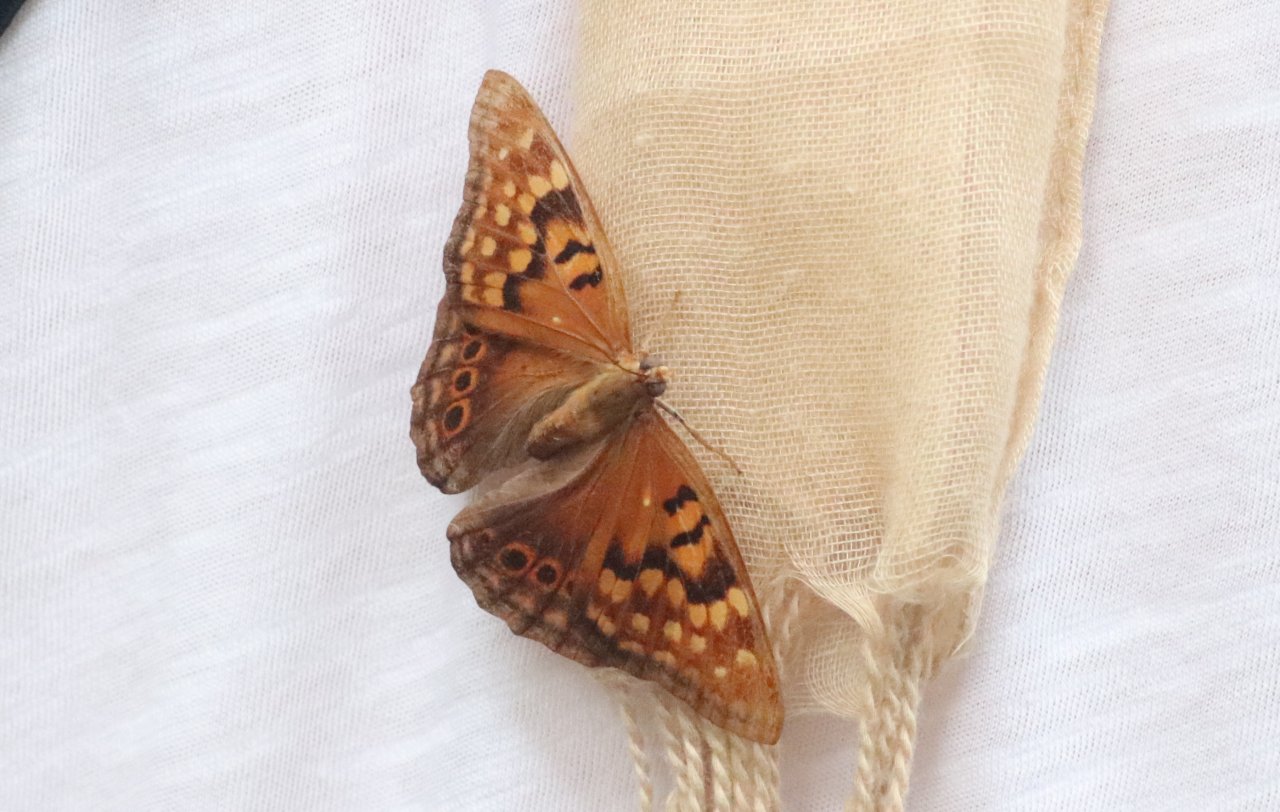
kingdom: Animalia
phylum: Arthropoda
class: Insecta
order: Lepidoptera
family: Nymphalidae
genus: Asterocampa
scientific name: Asterocampa clyton
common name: Tawny Emperor
